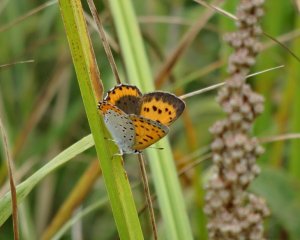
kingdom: Animalia
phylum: Arthropoda
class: Insecta
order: Lepidoptera
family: Sesiidae
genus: Sesia
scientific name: Sesia Lycaena hyllus
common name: Bronze Copper
